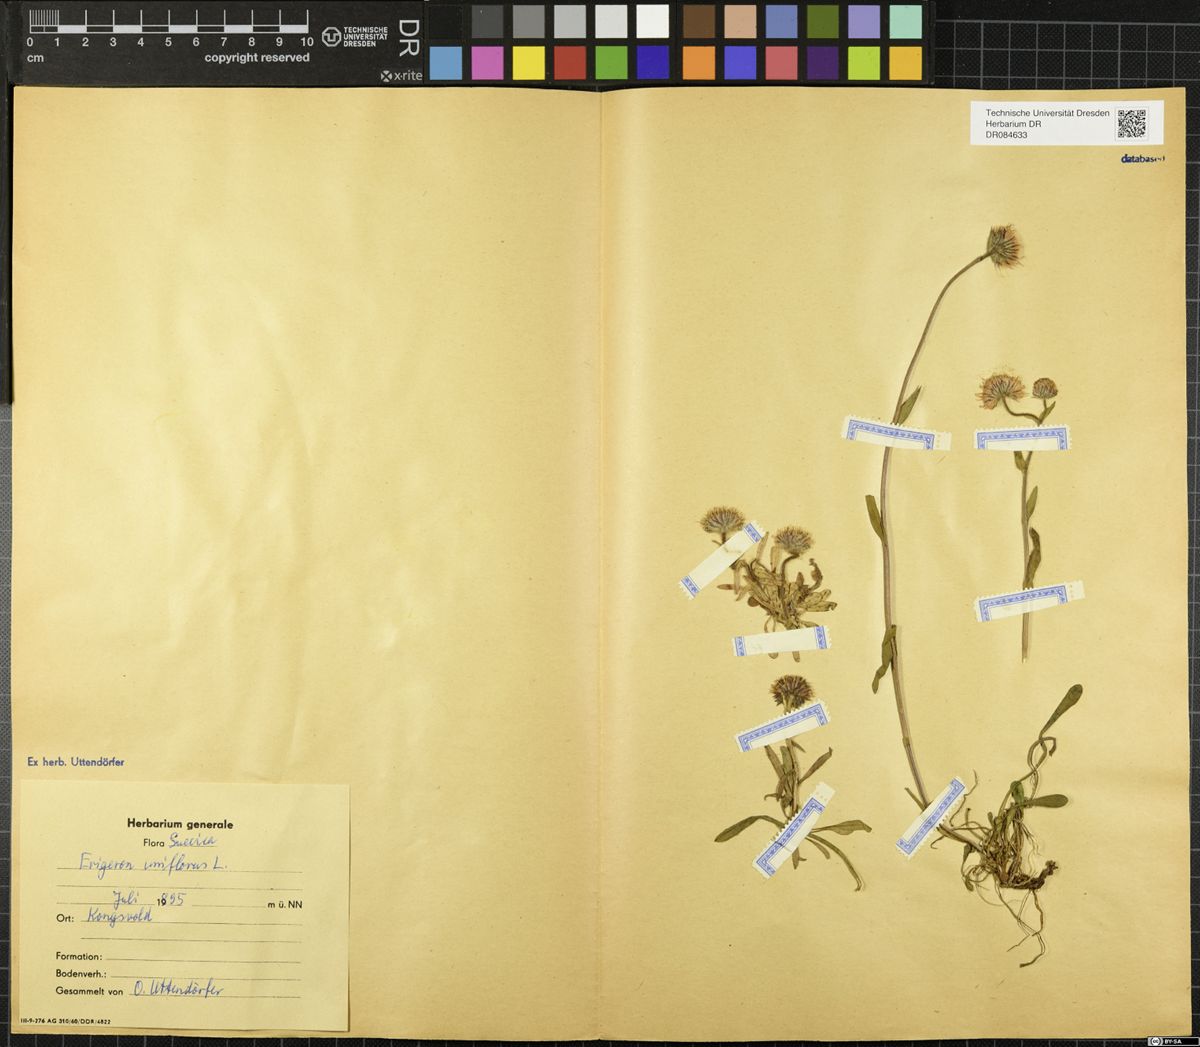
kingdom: Plantae
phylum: Tracheophyta
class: Magnoliopsida
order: Asterales
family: Asteraceae
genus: Erigeron
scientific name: Erigeron uniflorus
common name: Northern daisy
